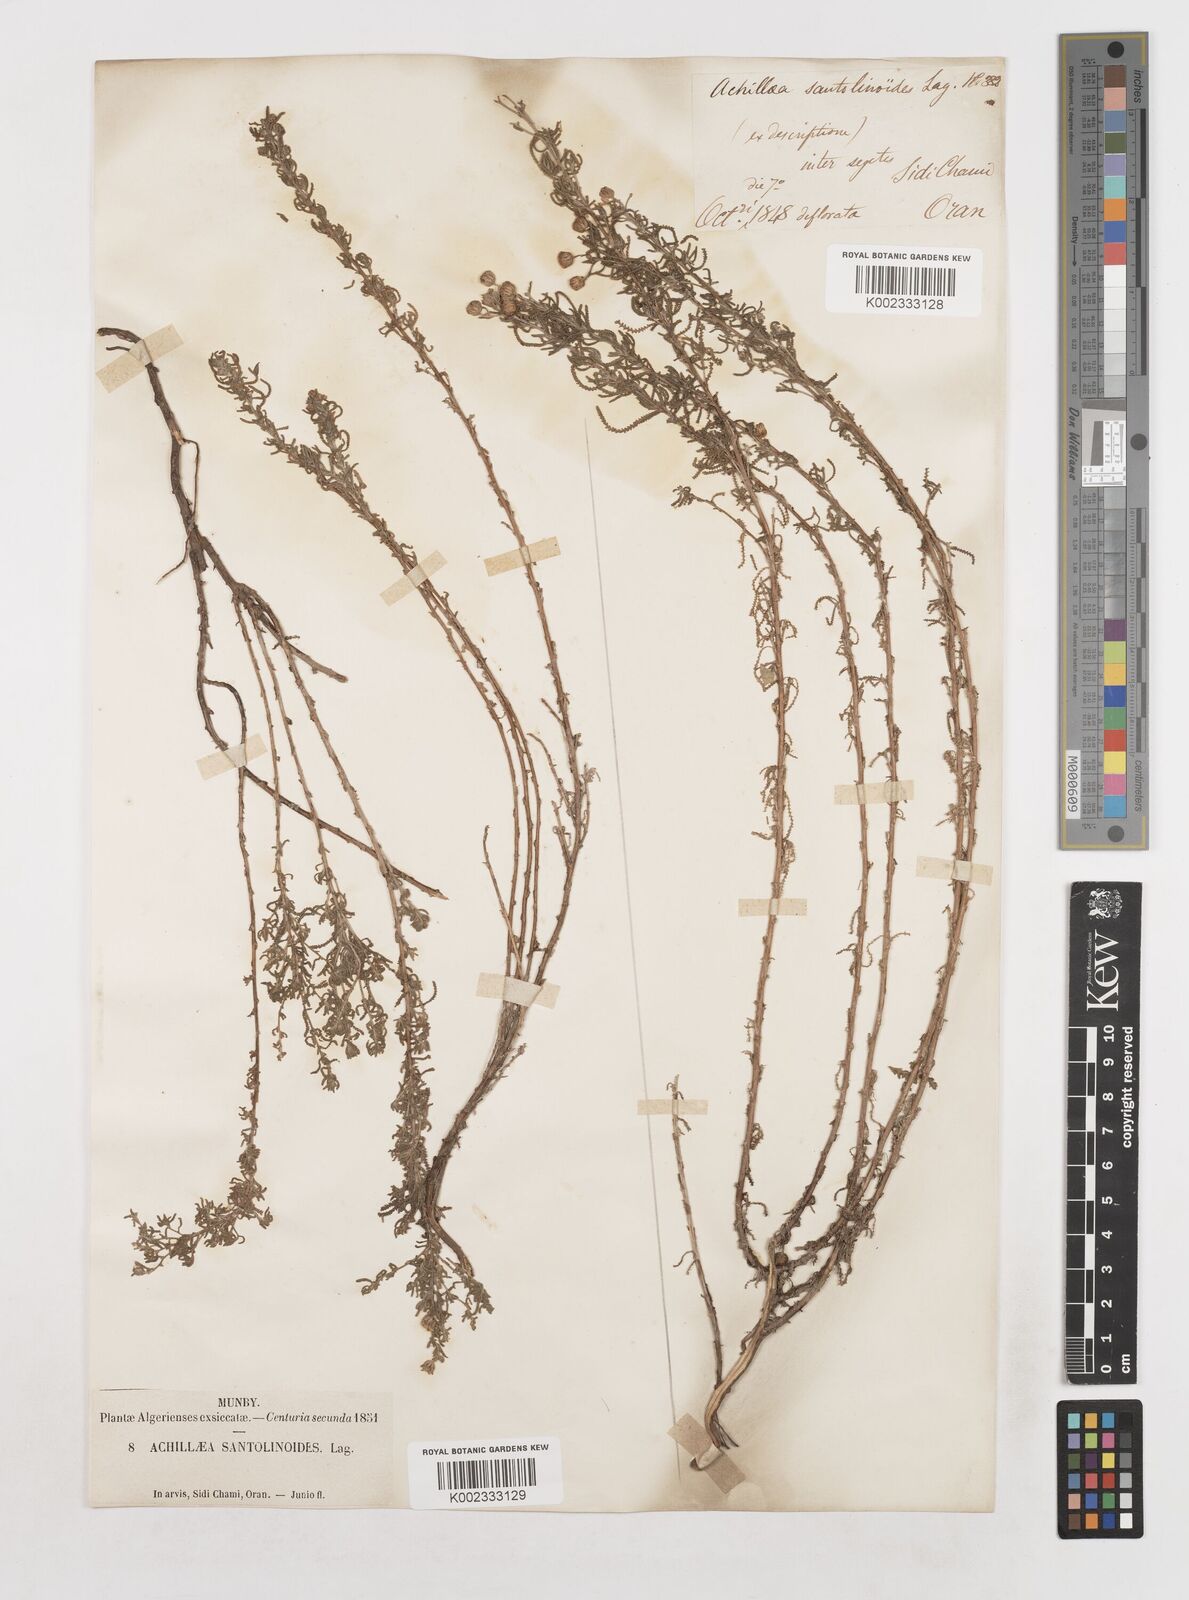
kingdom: Plantae
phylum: Tracheophyta
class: Magnoliopsida
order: Asterales
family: Asteraceae
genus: Achillea
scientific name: Achillea santolinoides
